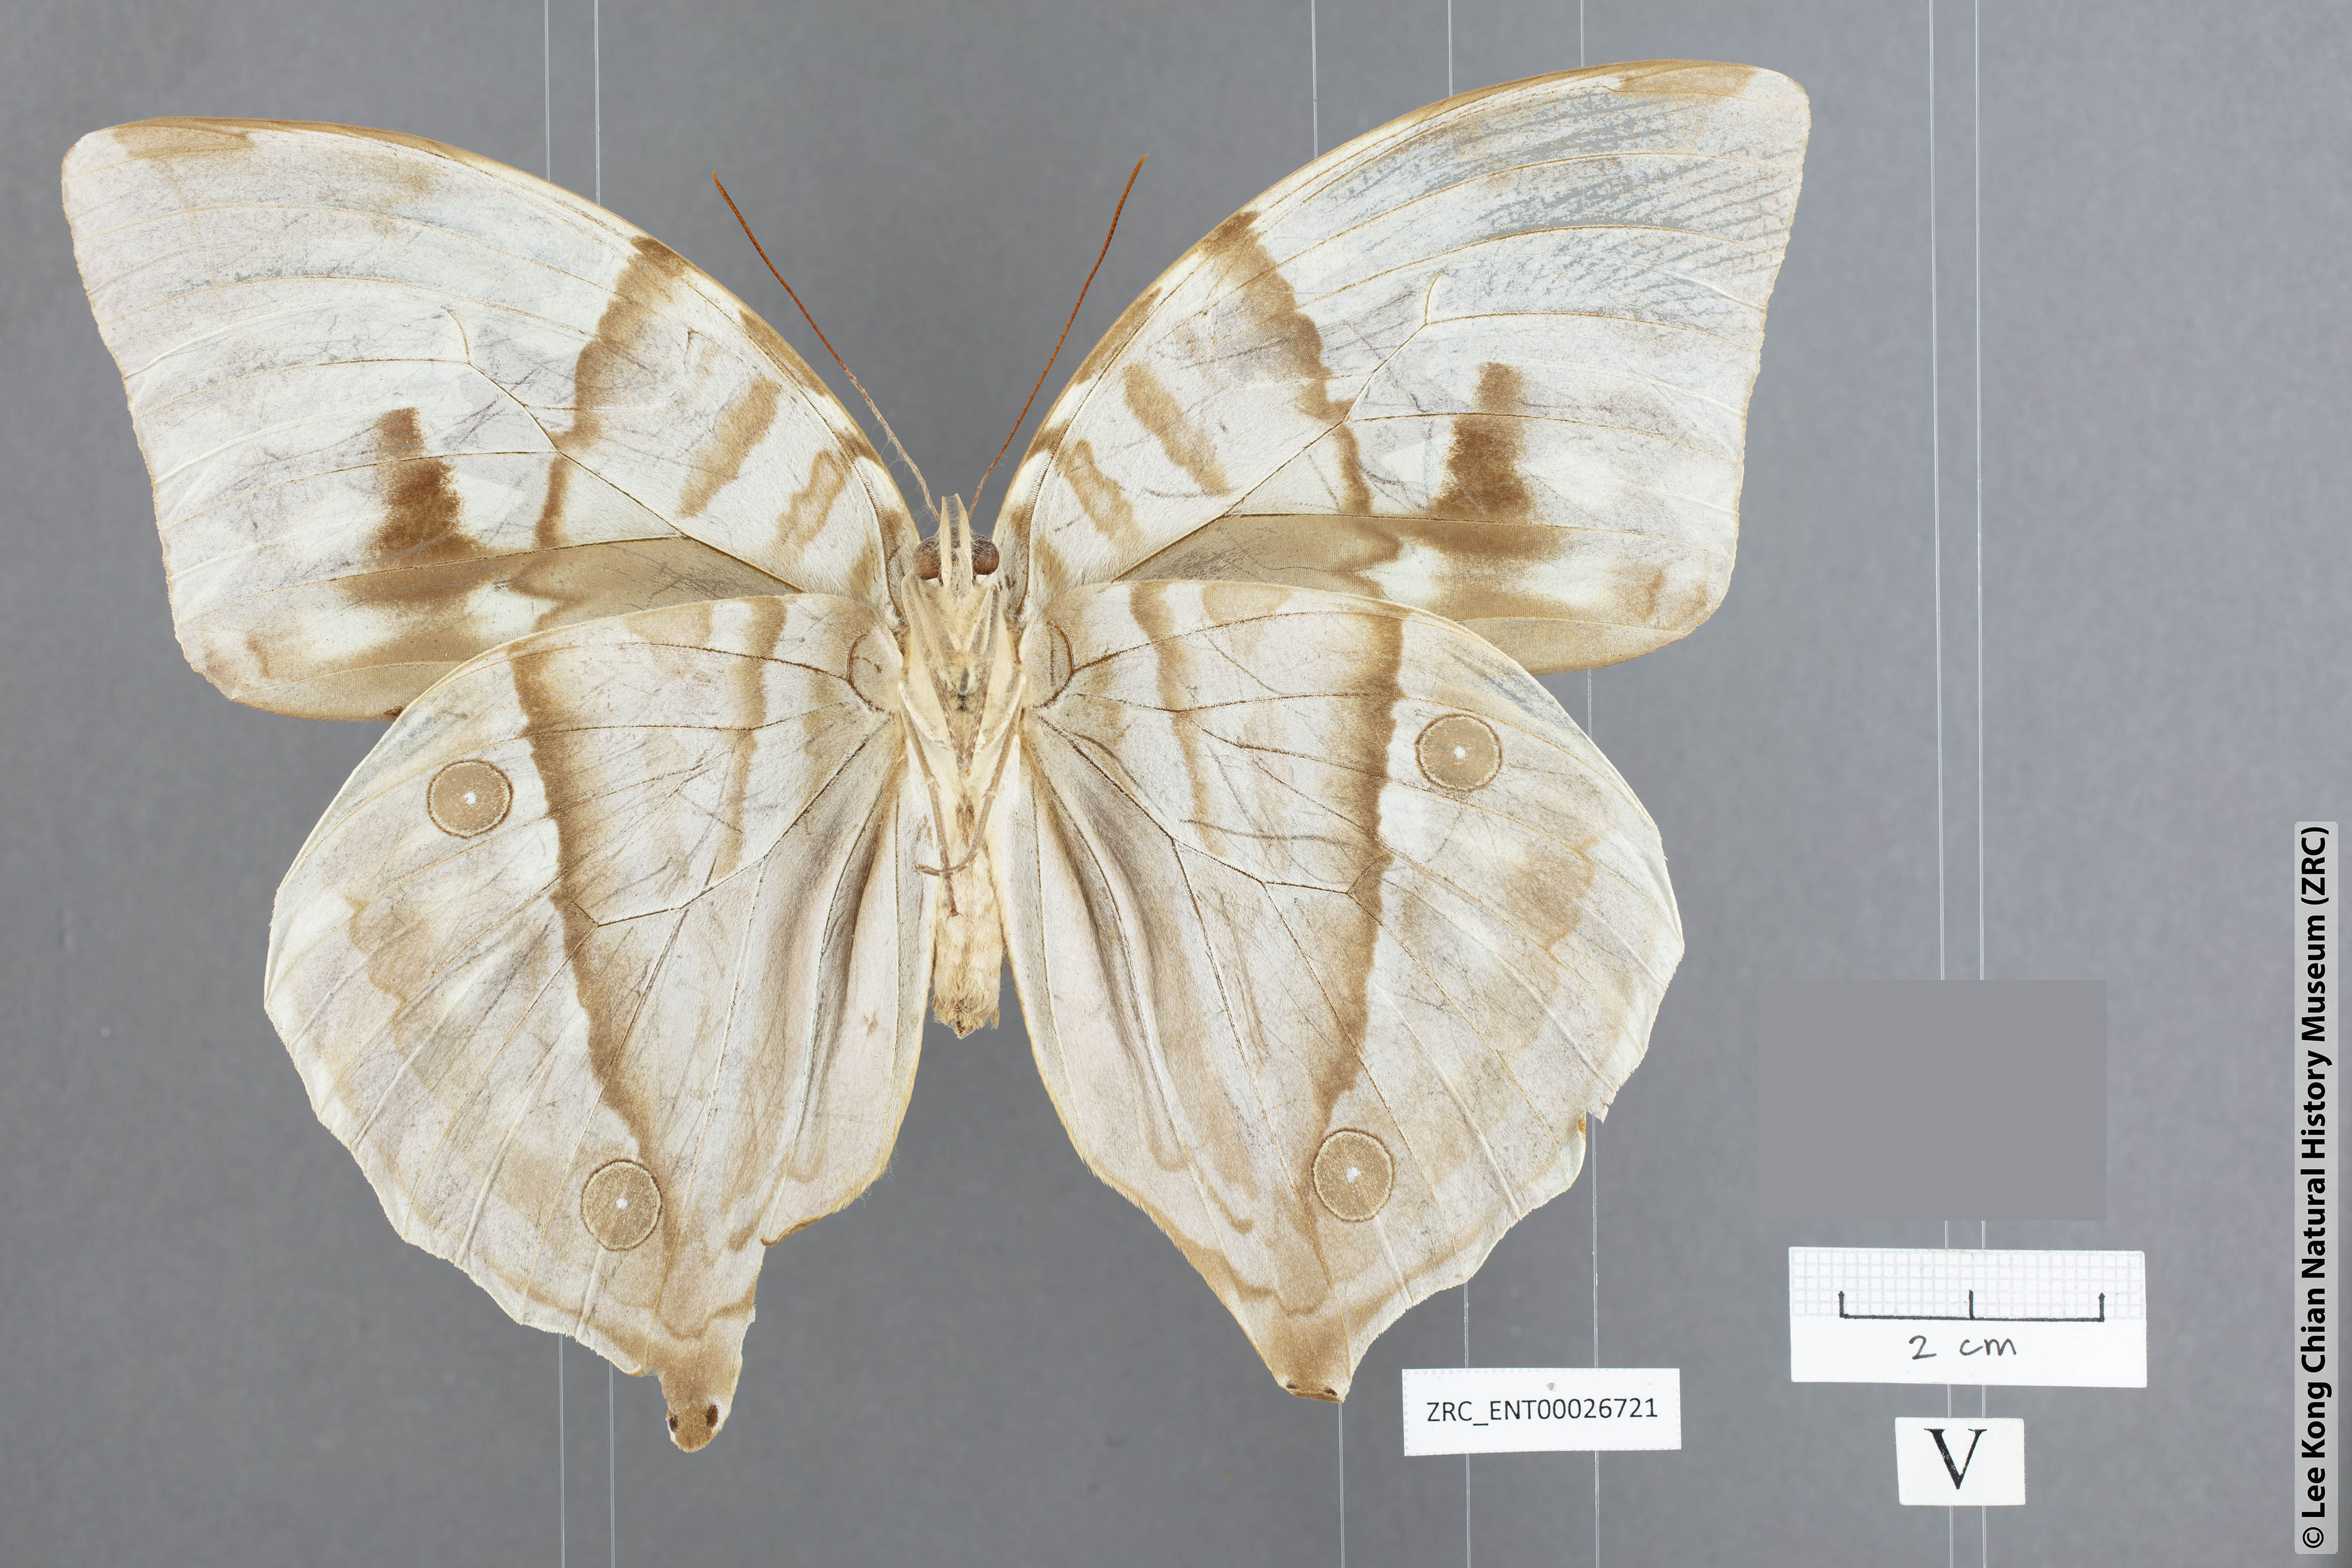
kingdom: Animalia
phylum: Arthropoda
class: Insecta
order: Lepidoptera
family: Nymphalidae
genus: Zeuxidia
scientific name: Zeuxidia aurelia
